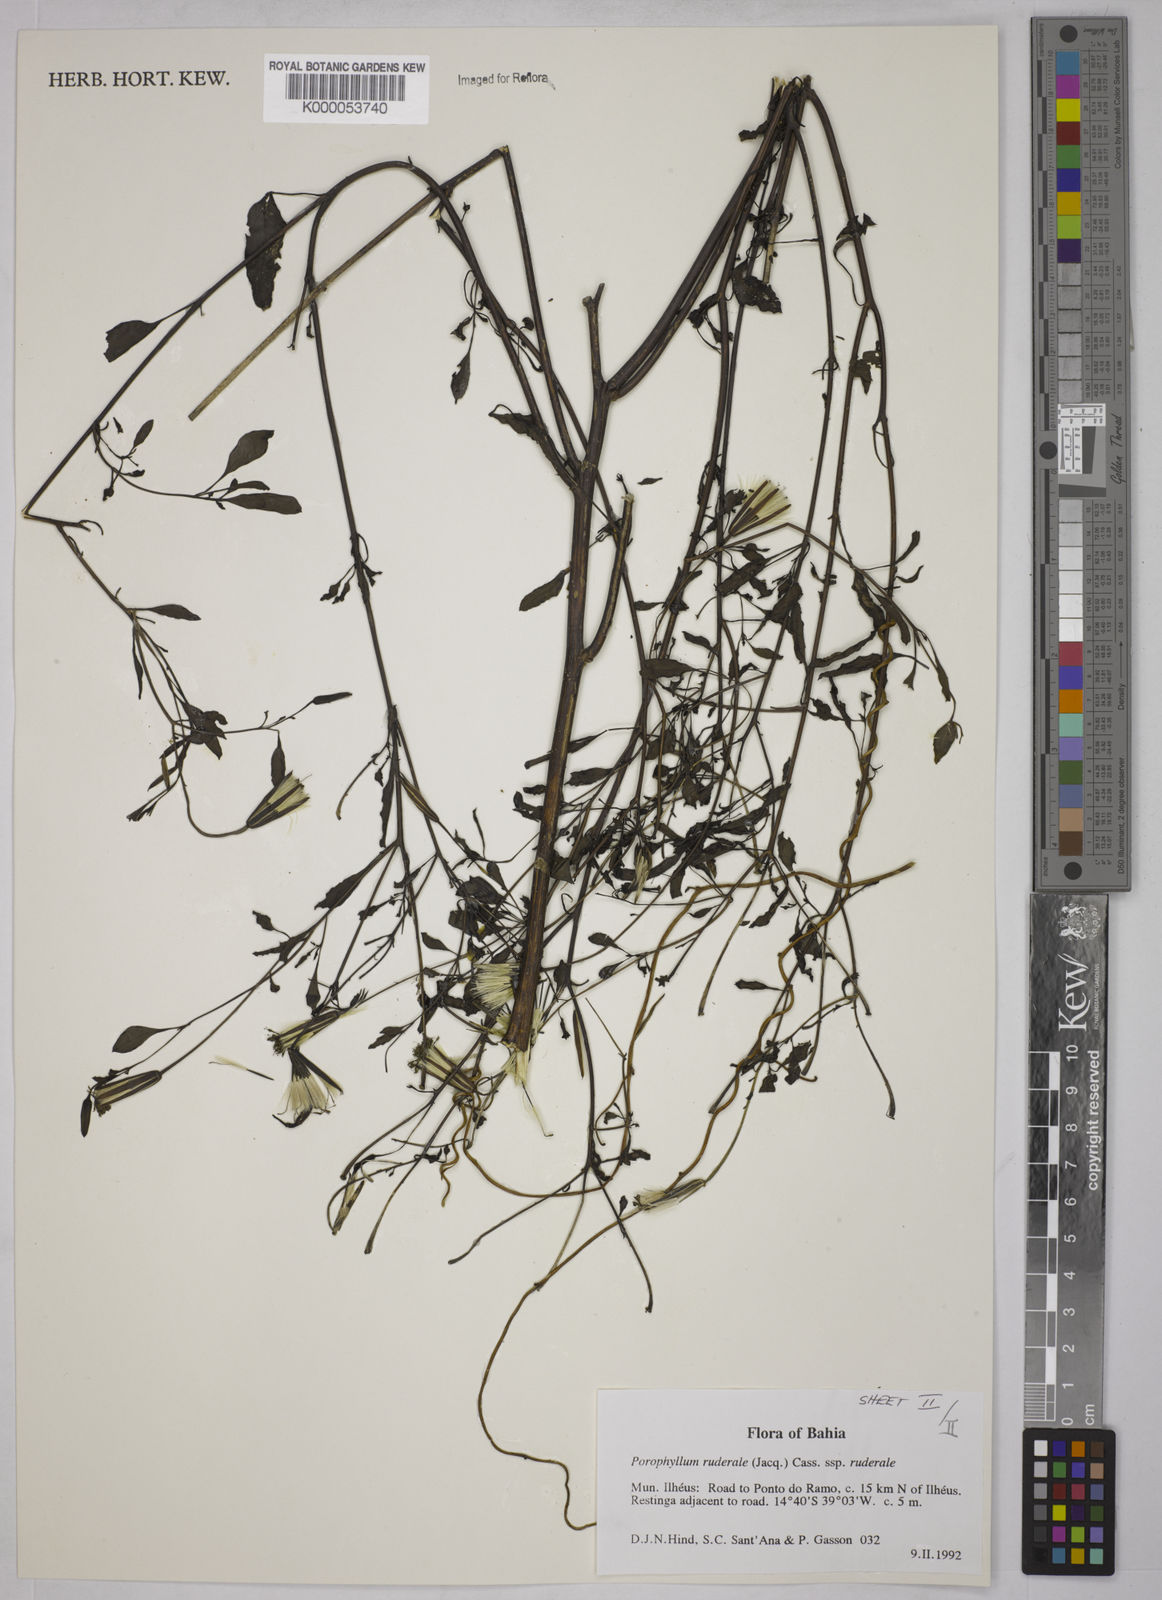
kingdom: Plantae
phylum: Tracheophyta
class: Magnoliopsida
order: Asterales
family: Asteraceae
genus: Porophyllum
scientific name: Porophyllum ruderale
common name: Yerba porosa
